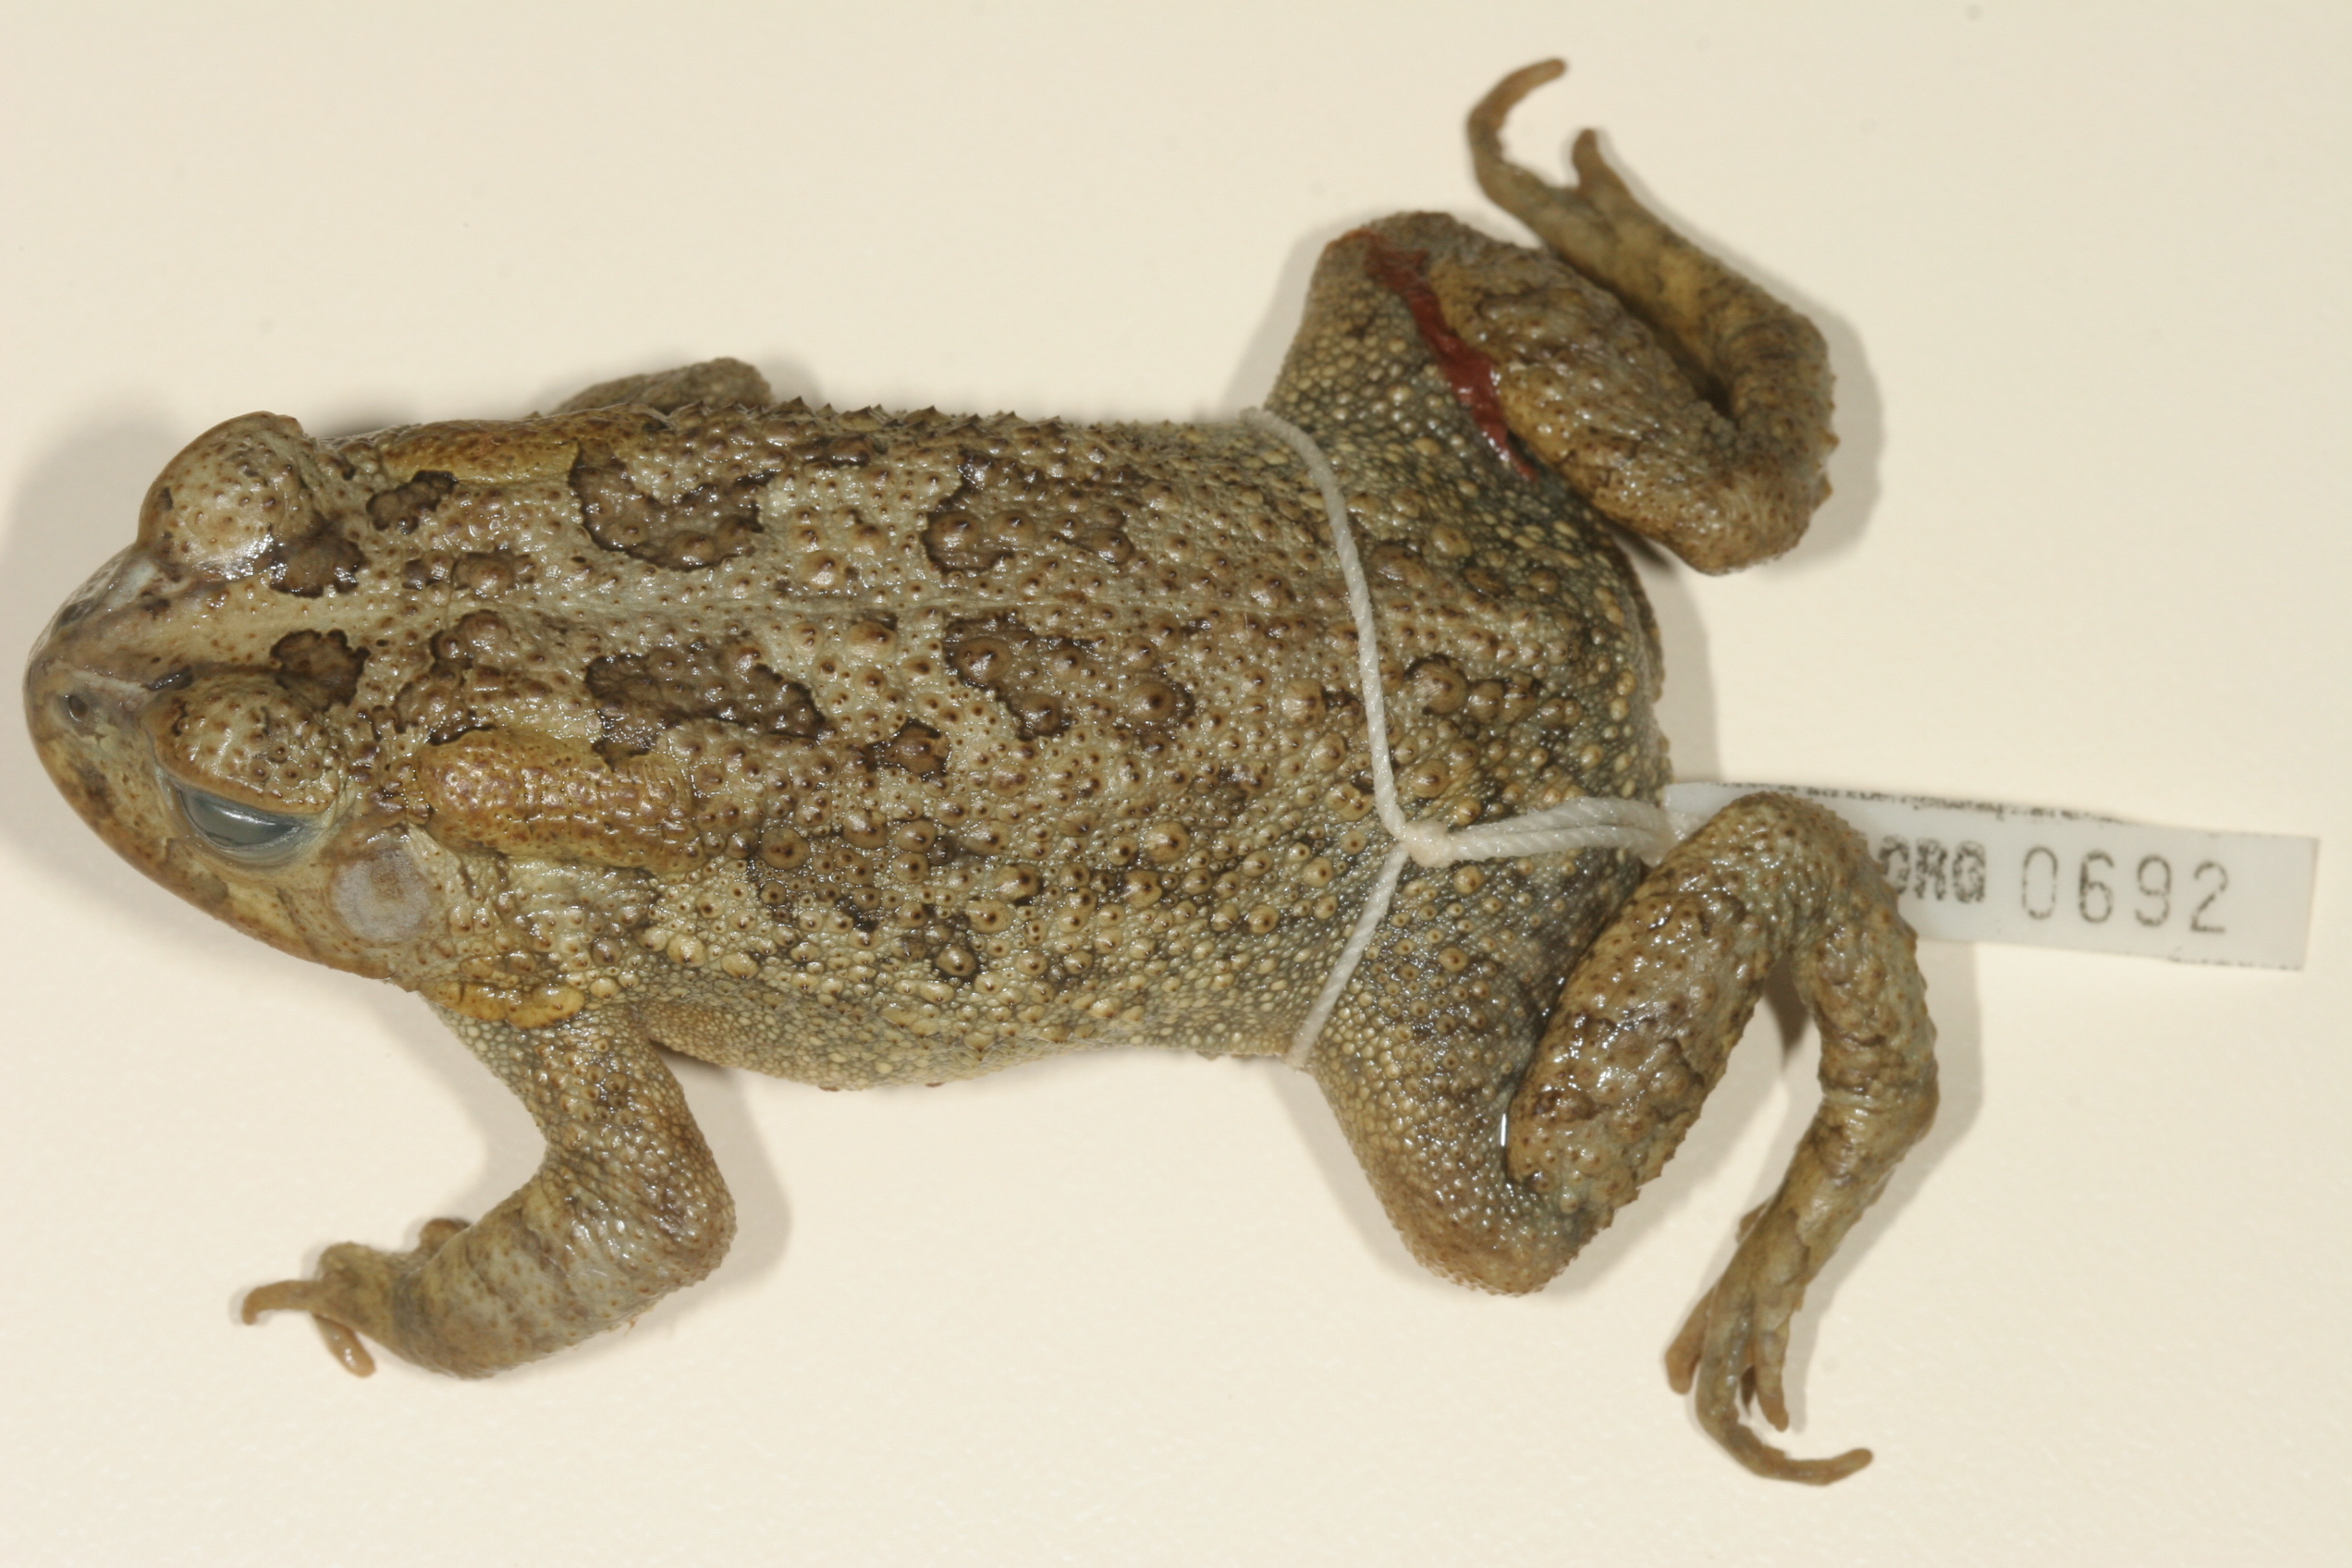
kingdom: Animalia
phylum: Chordata
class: Amphibia
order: Anura
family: Bufonidae
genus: Sclerophrys
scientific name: Sclerophrys gutturalis
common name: African common toad
